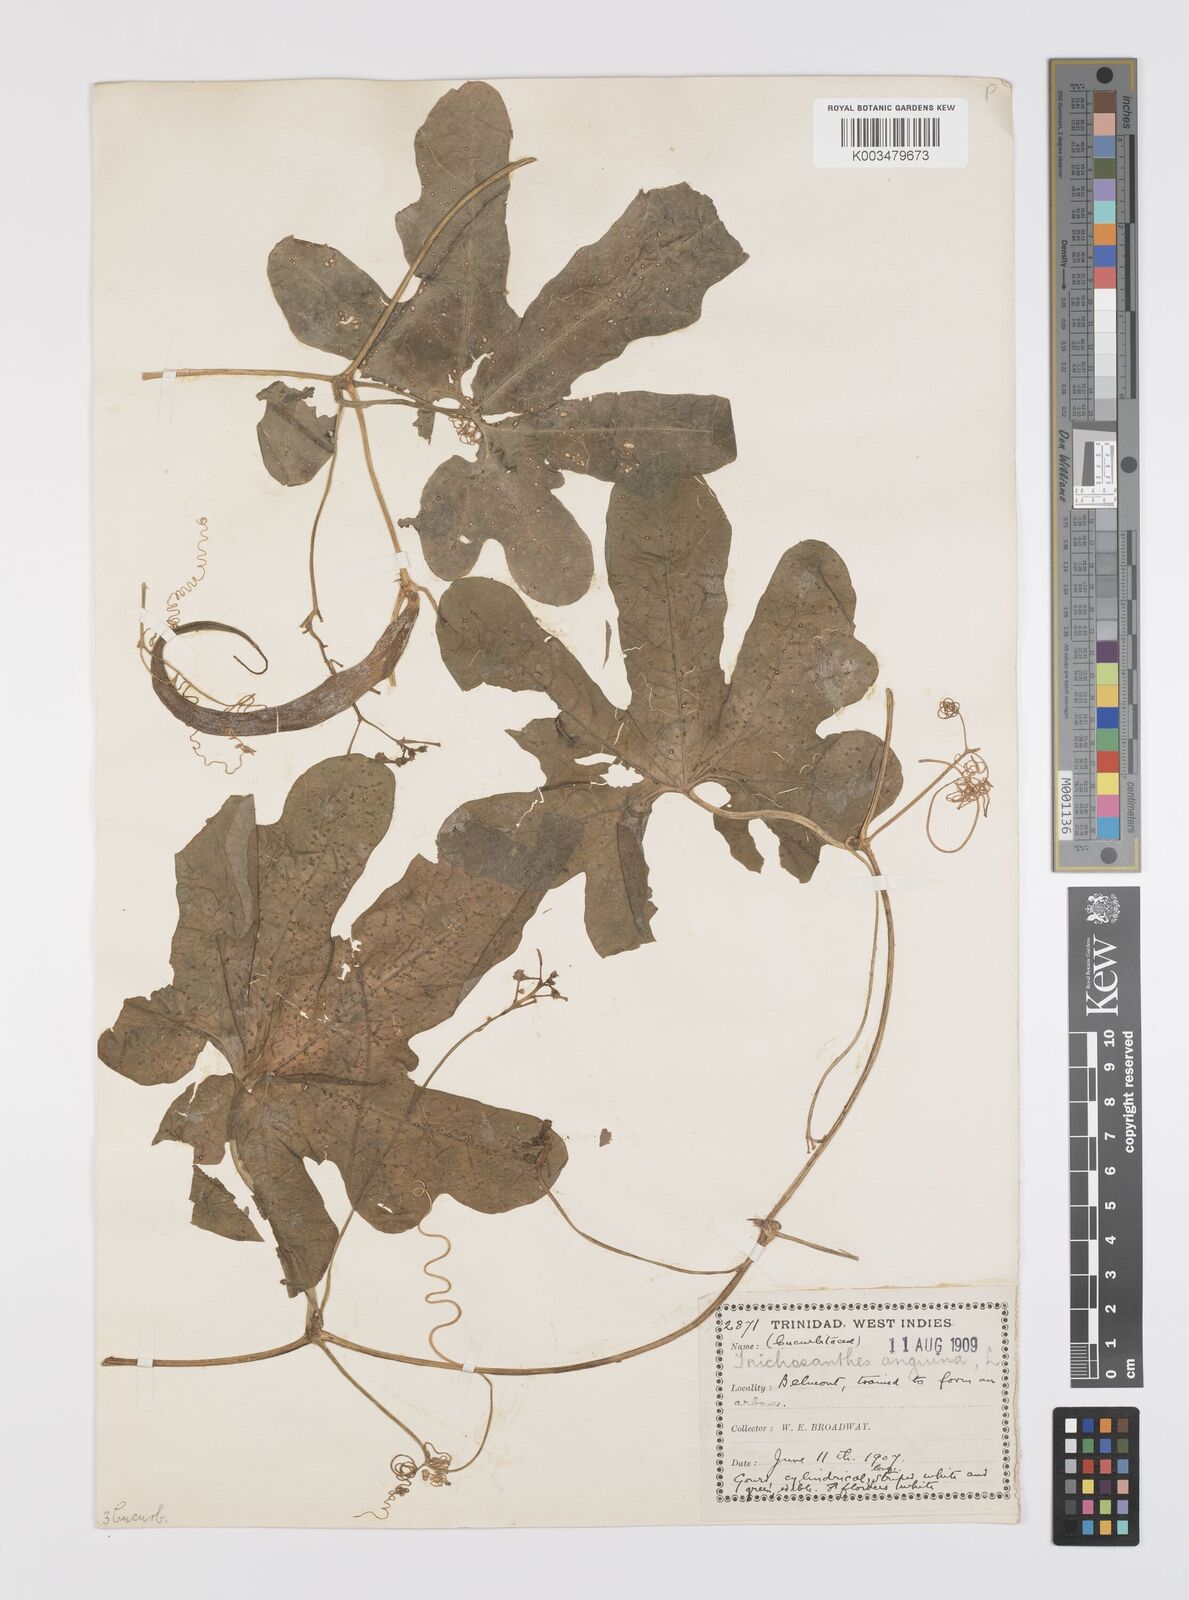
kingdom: Plantae
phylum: Tracheophyta
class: Magnoliopsida
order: Cucurbitales
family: Cucurbitaceae
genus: Trichosanthes
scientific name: Trichosanthes
